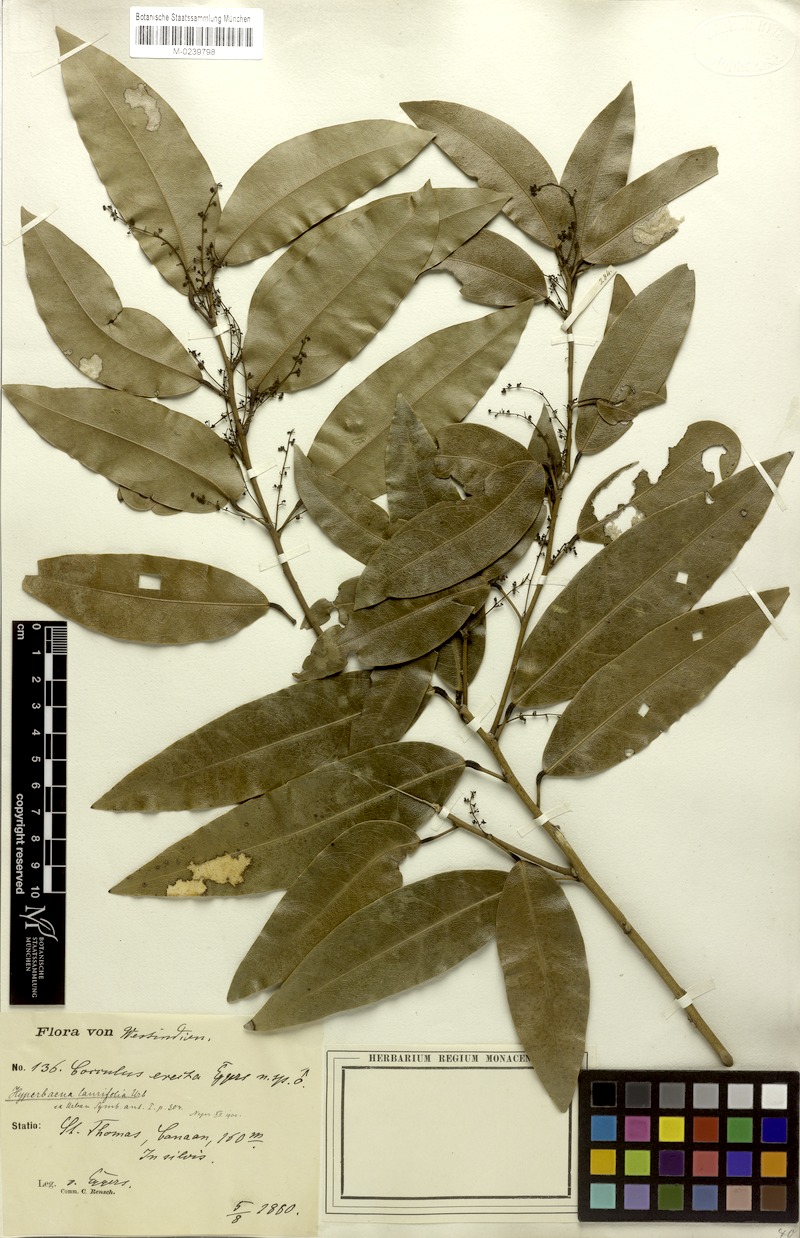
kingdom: Plantae
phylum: Tracheophyta
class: Magnoliopsida
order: Ranunculales
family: Menispermaceae
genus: Hyperbaena
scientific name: Hyperbaena laurifolia
